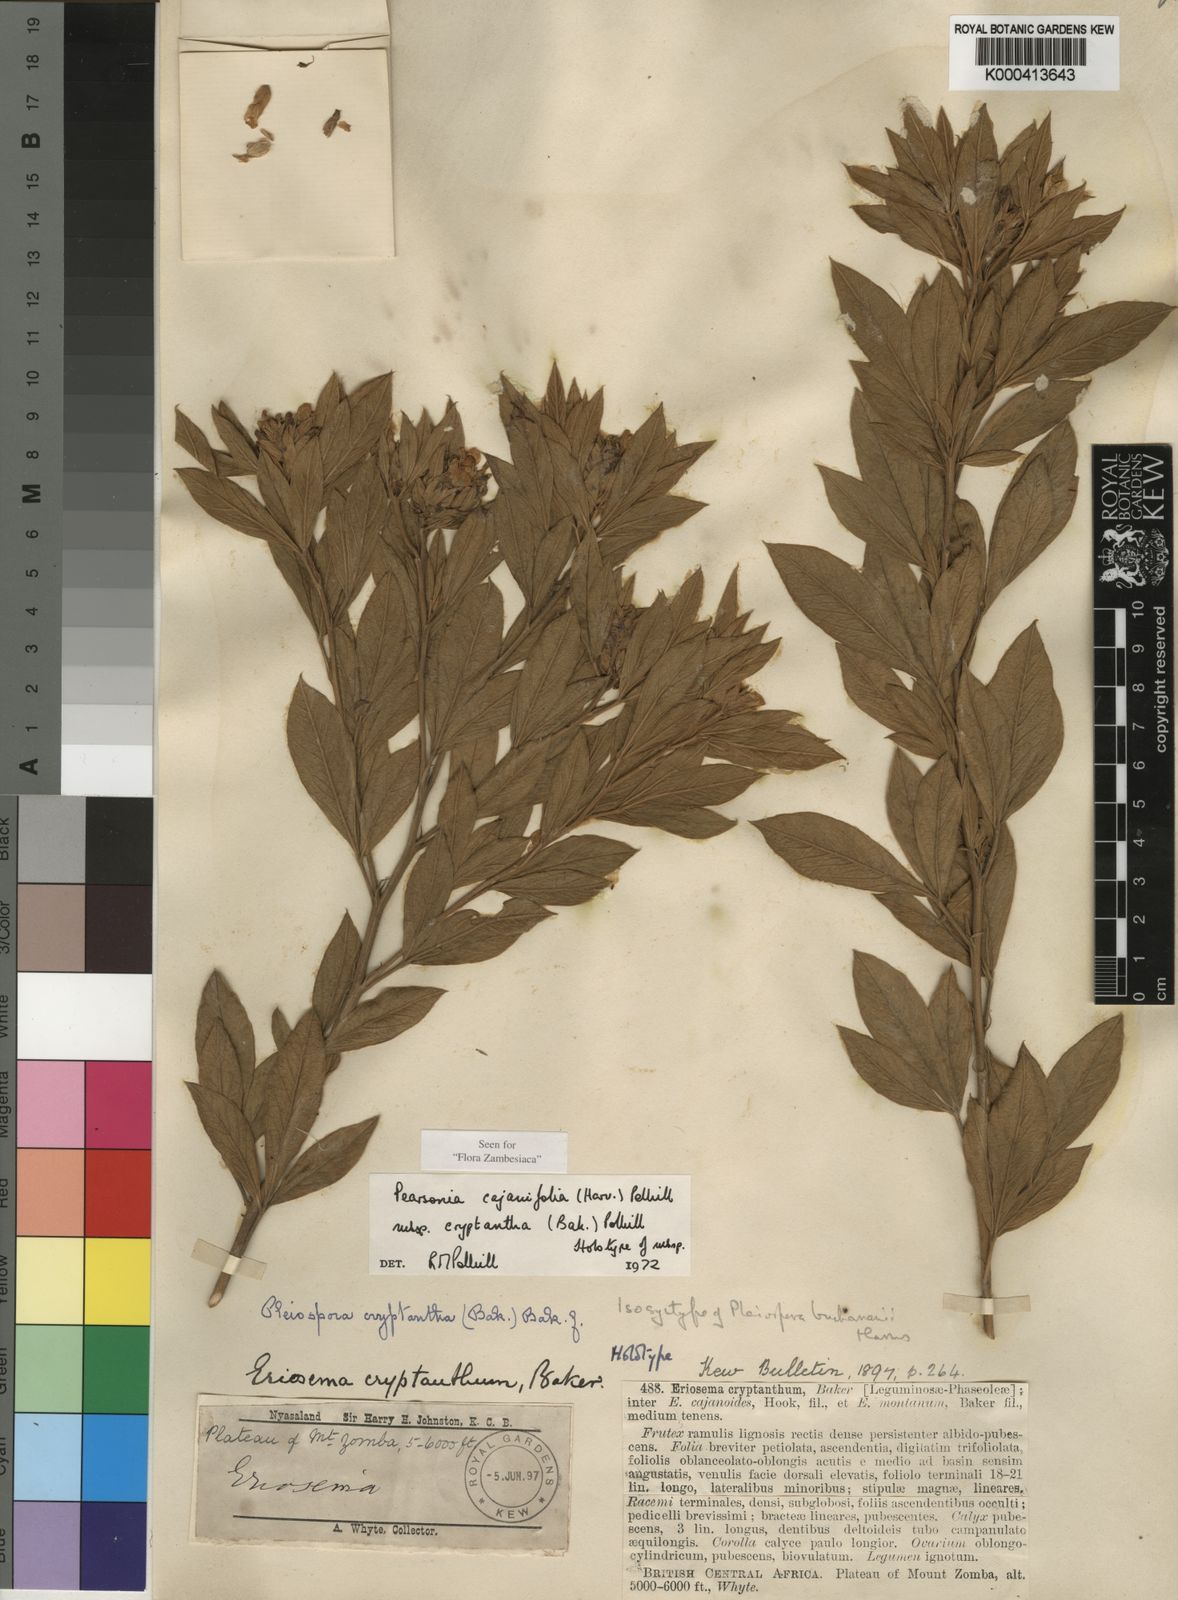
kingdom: Plantae
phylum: Tracheophyta
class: Magnoliopsida
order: Fabales
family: Fabaceae
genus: Pearsonia
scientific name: Pearsonia cajanifolia
